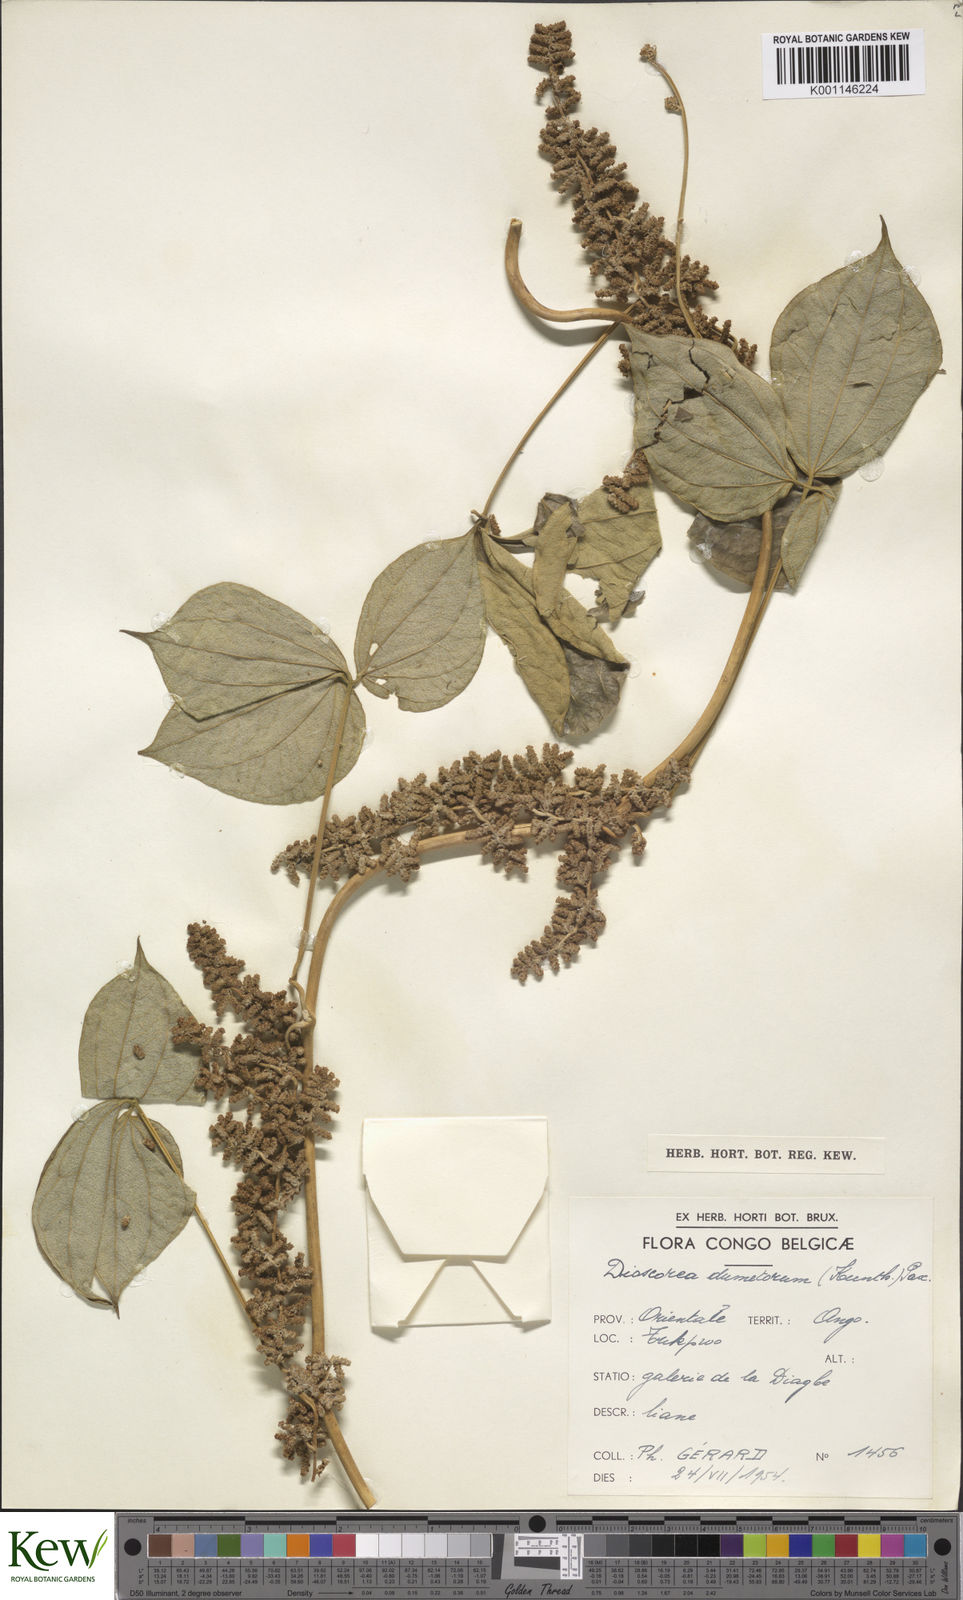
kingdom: Plantae
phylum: Tracheophyta
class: Liliopsida
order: Dioscoreales
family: Dioscoreaceae
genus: Dioscorea
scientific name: Dioscorea dumetorum
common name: African bitter yam
